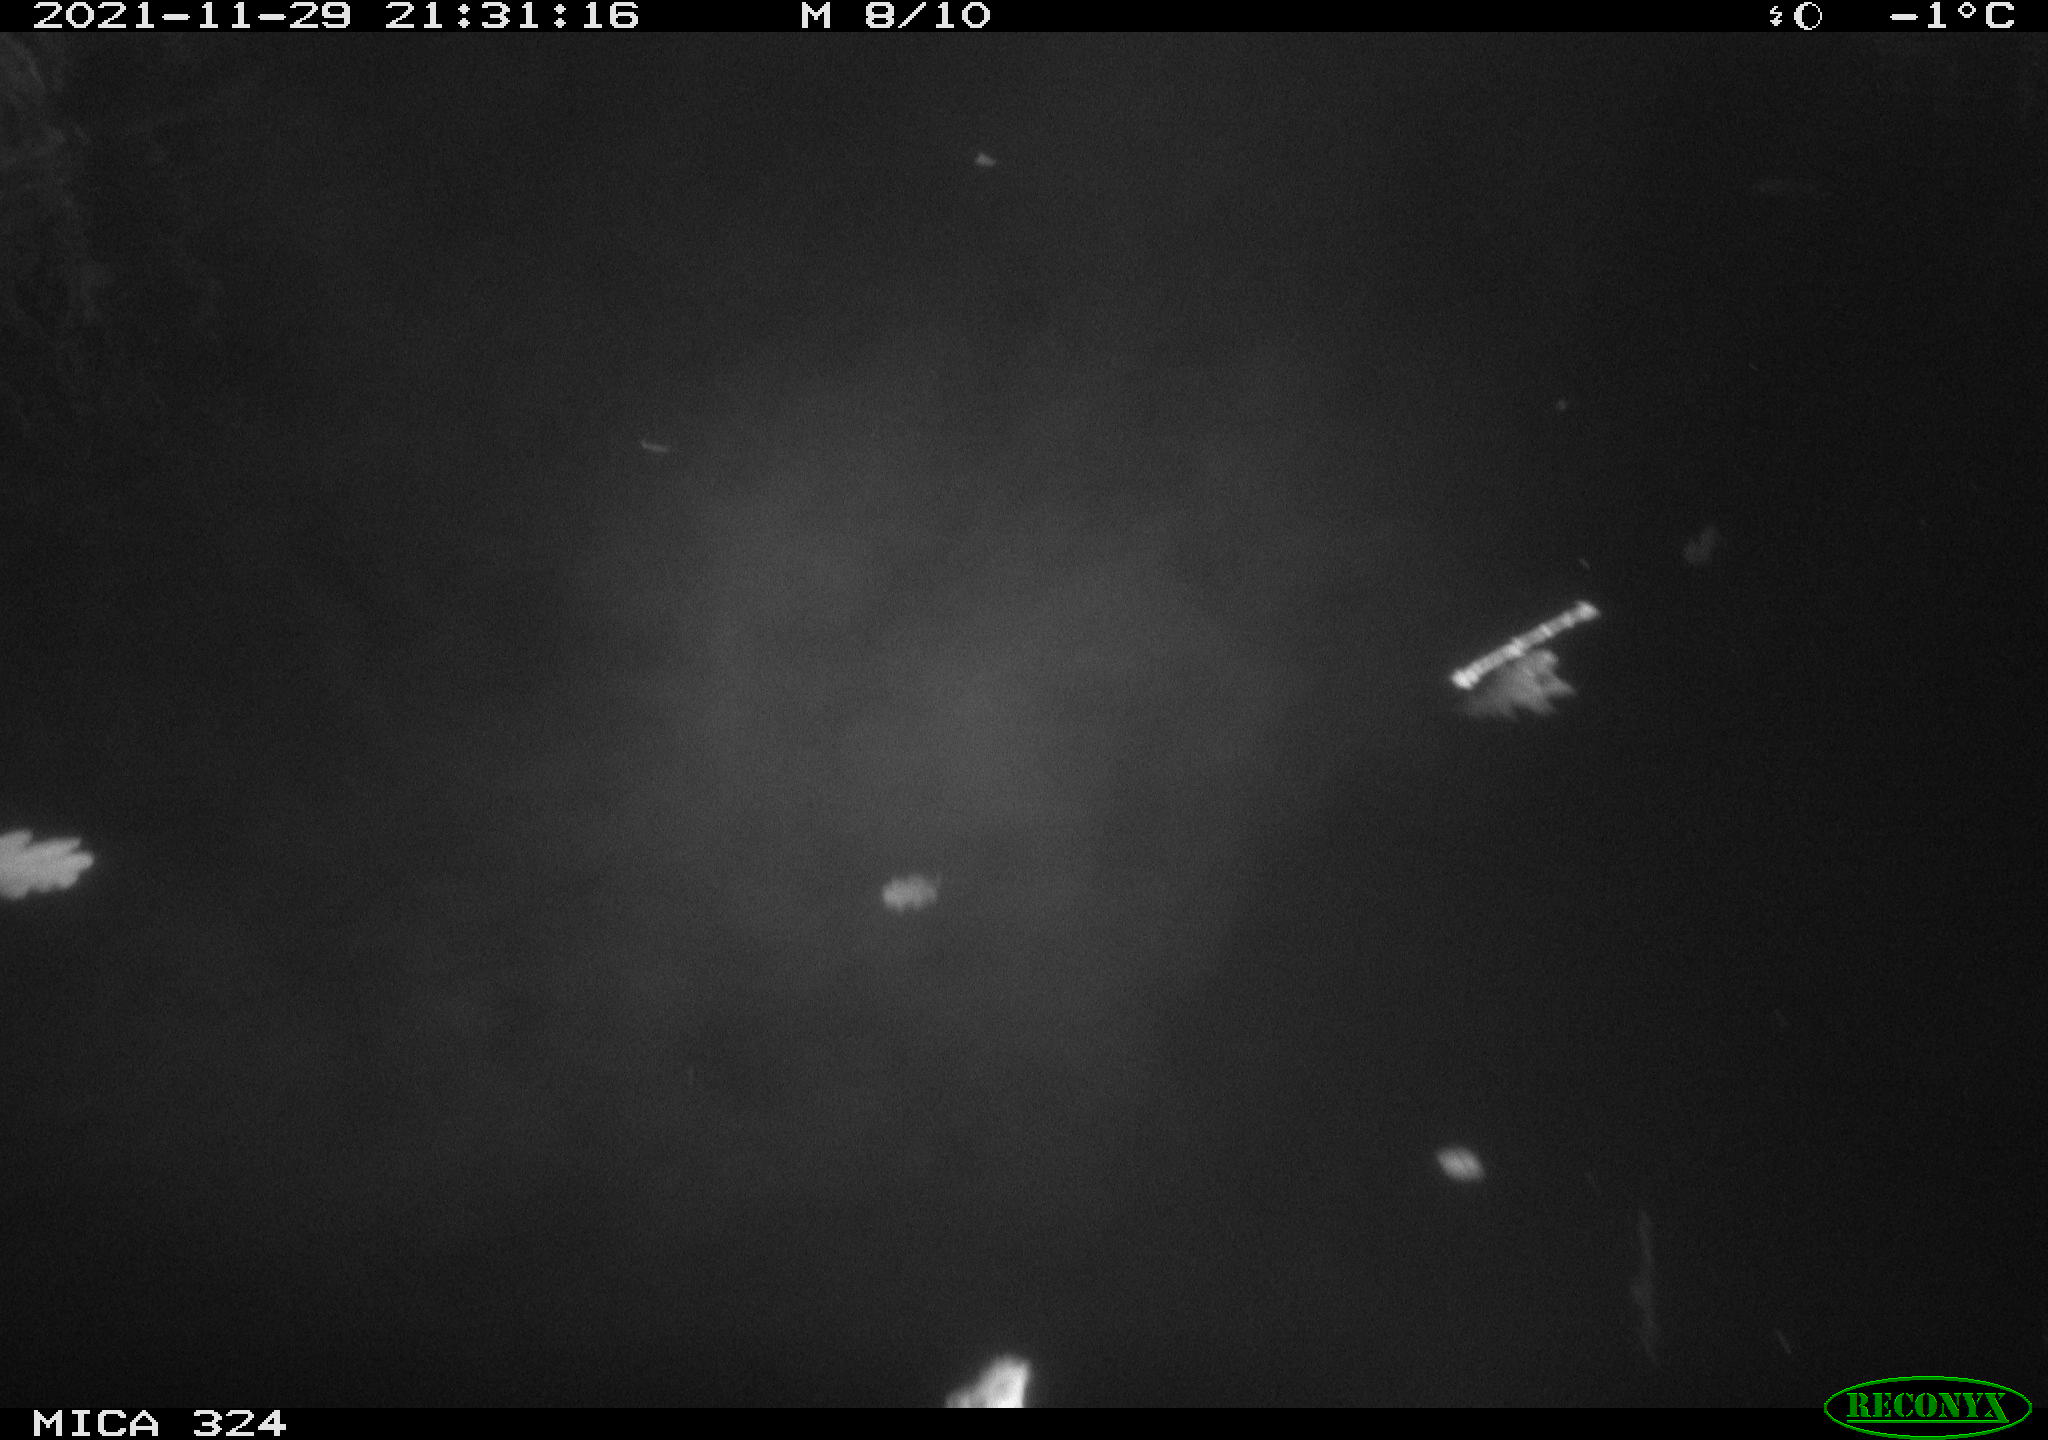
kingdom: Animalia
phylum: Chordata
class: Mammalia
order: Rodentia
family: Cricetidae
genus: Ondatra
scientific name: Ondatra zibethicus
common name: Muskrat
